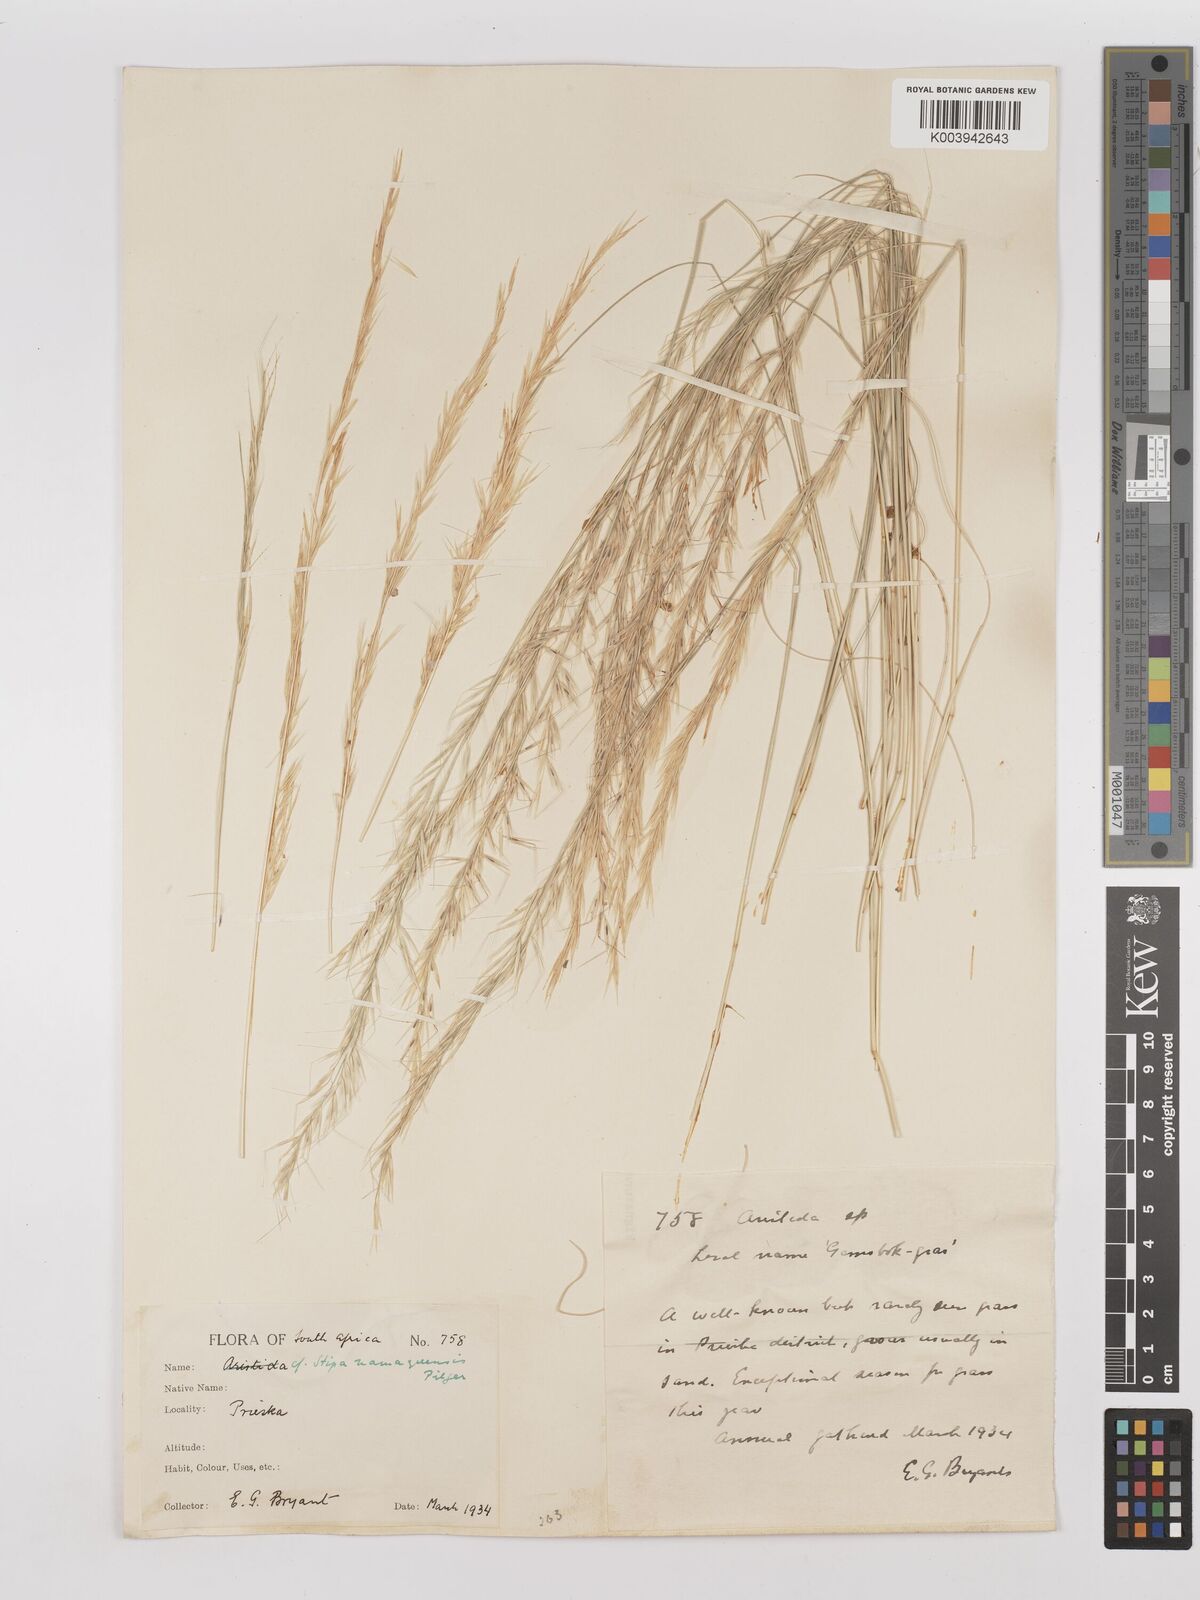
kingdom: Plantae
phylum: Tracheophyta
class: Liliopsida
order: Poales
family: Poaceae
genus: Stipagrostis
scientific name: Stipagrostis anomala
